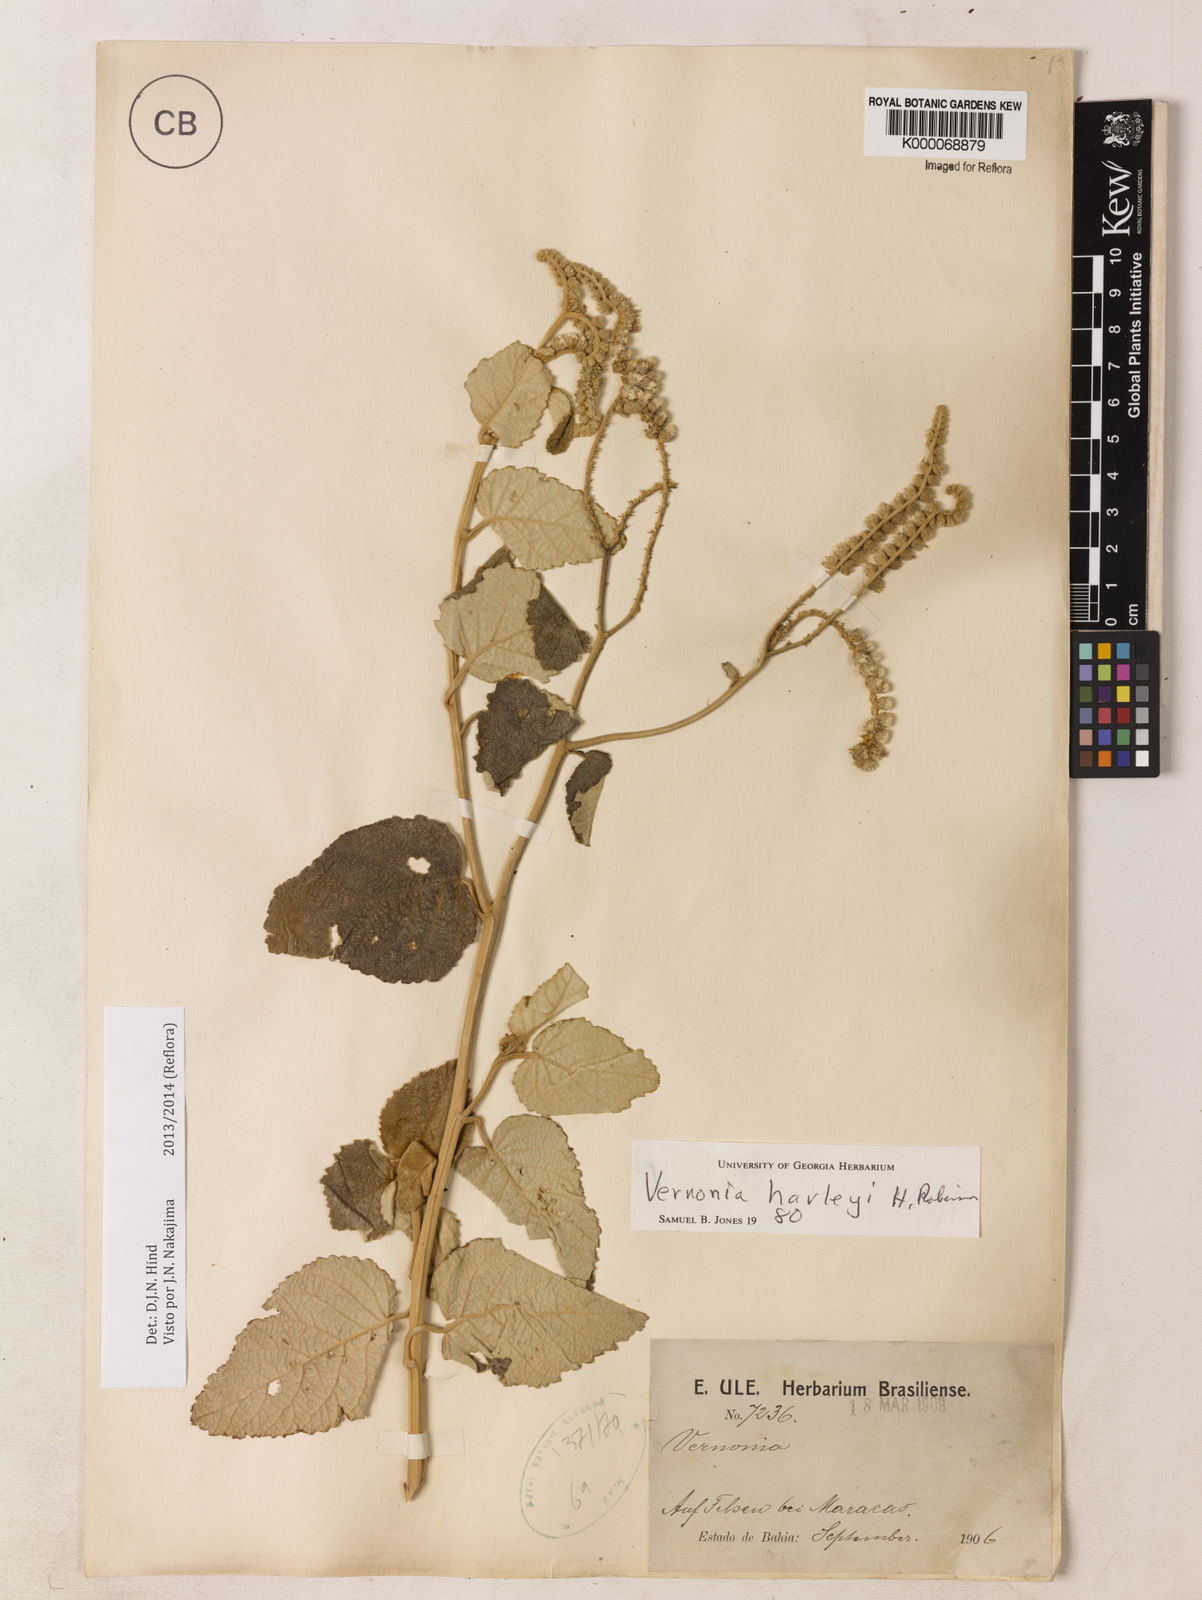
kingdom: Plantae
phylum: Tracheophyta
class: Magnoliopsida
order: Asterales
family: Asteraceae
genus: Cyrtocymura
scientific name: Cyrtocymura harleyi
